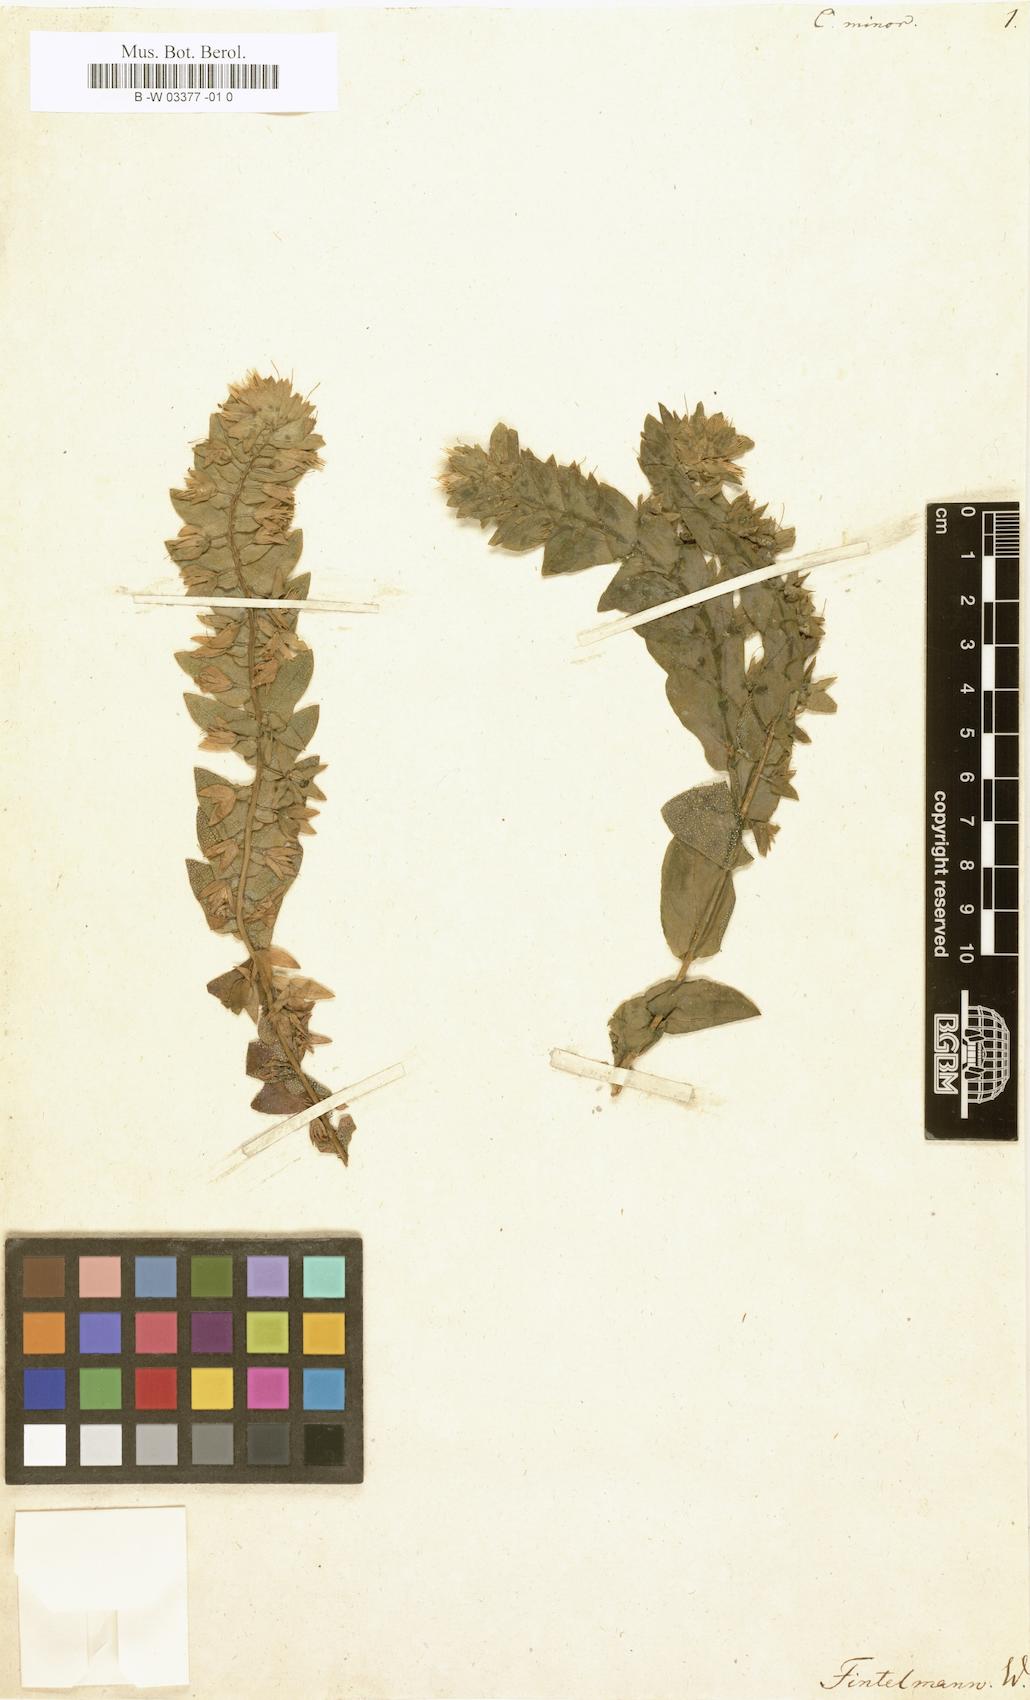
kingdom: Plantae
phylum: Tracheophyta
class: Magnoliopsida
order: Boraginales
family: Boraginaceae
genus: Cerinthe
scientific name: Cerinthe minor
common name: Lesser honeywort
